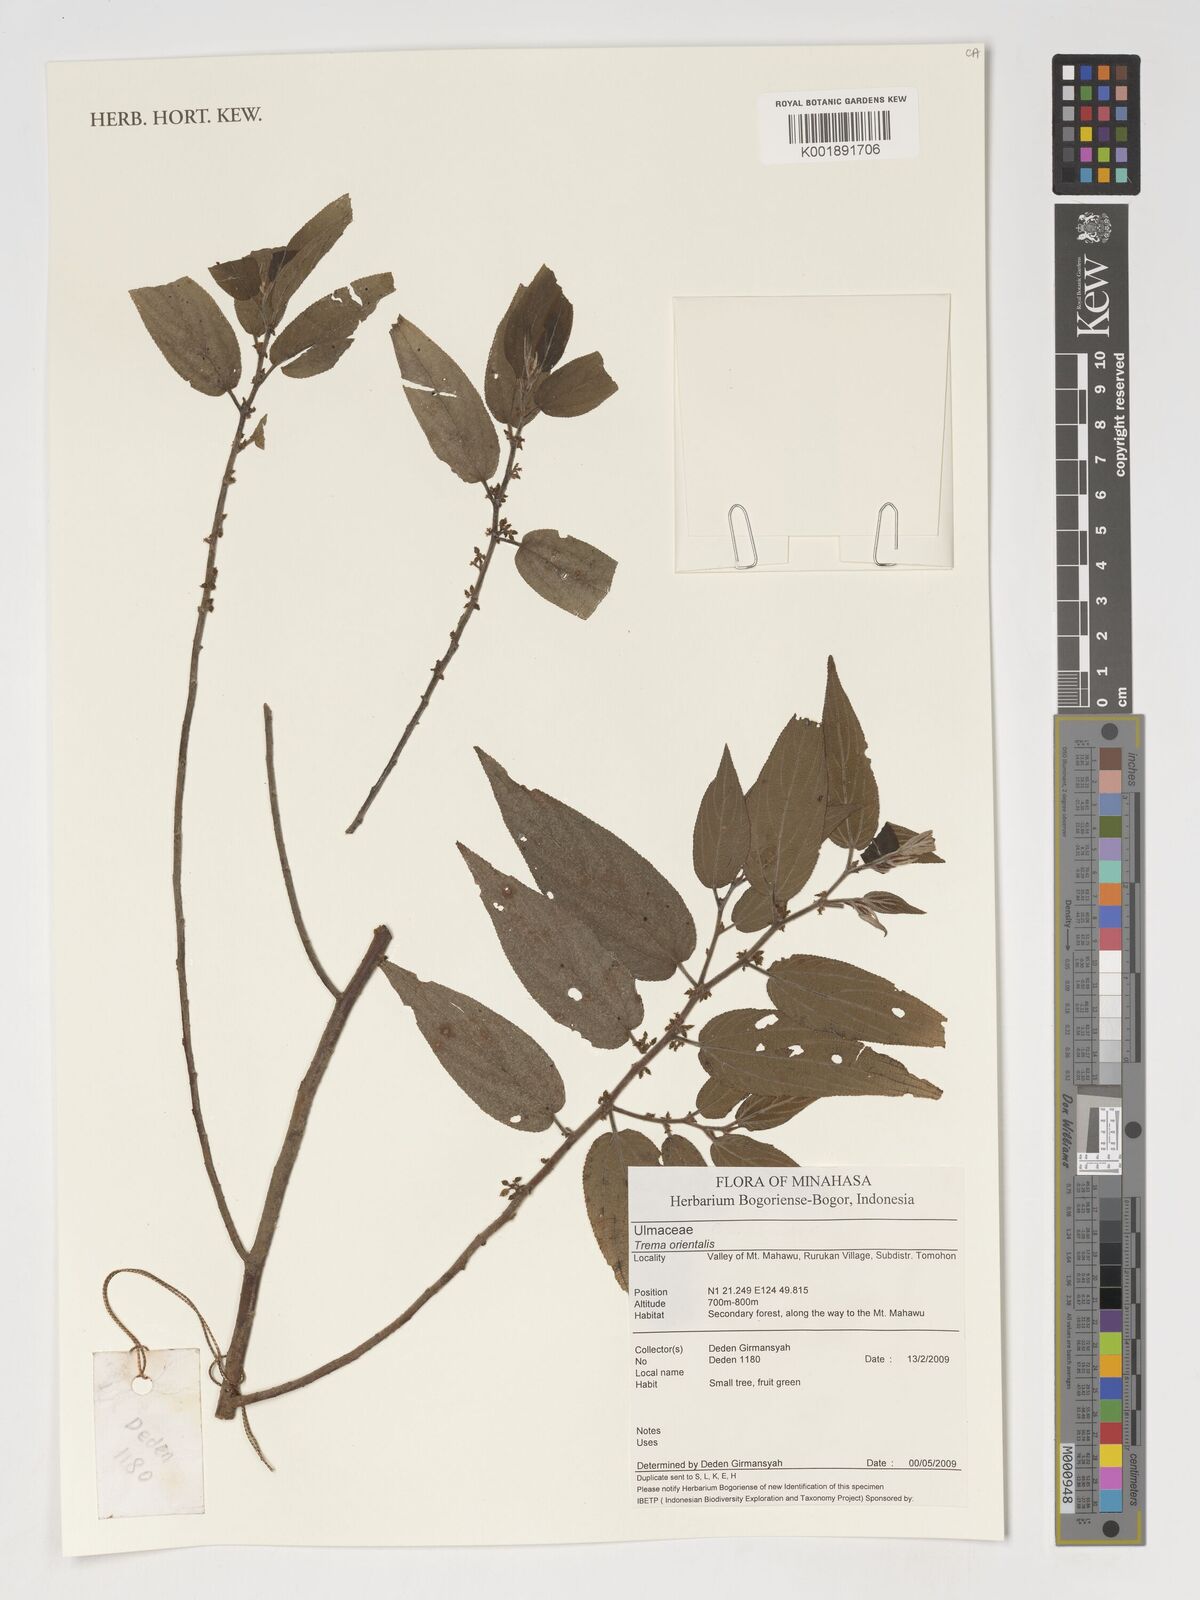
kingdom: Plantae
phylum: Tracheophyta
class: Magnoliopsida
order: Rosales
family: Cannabaceae
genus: Trema
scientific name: Trema orientale
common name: Indian charcoal tree
